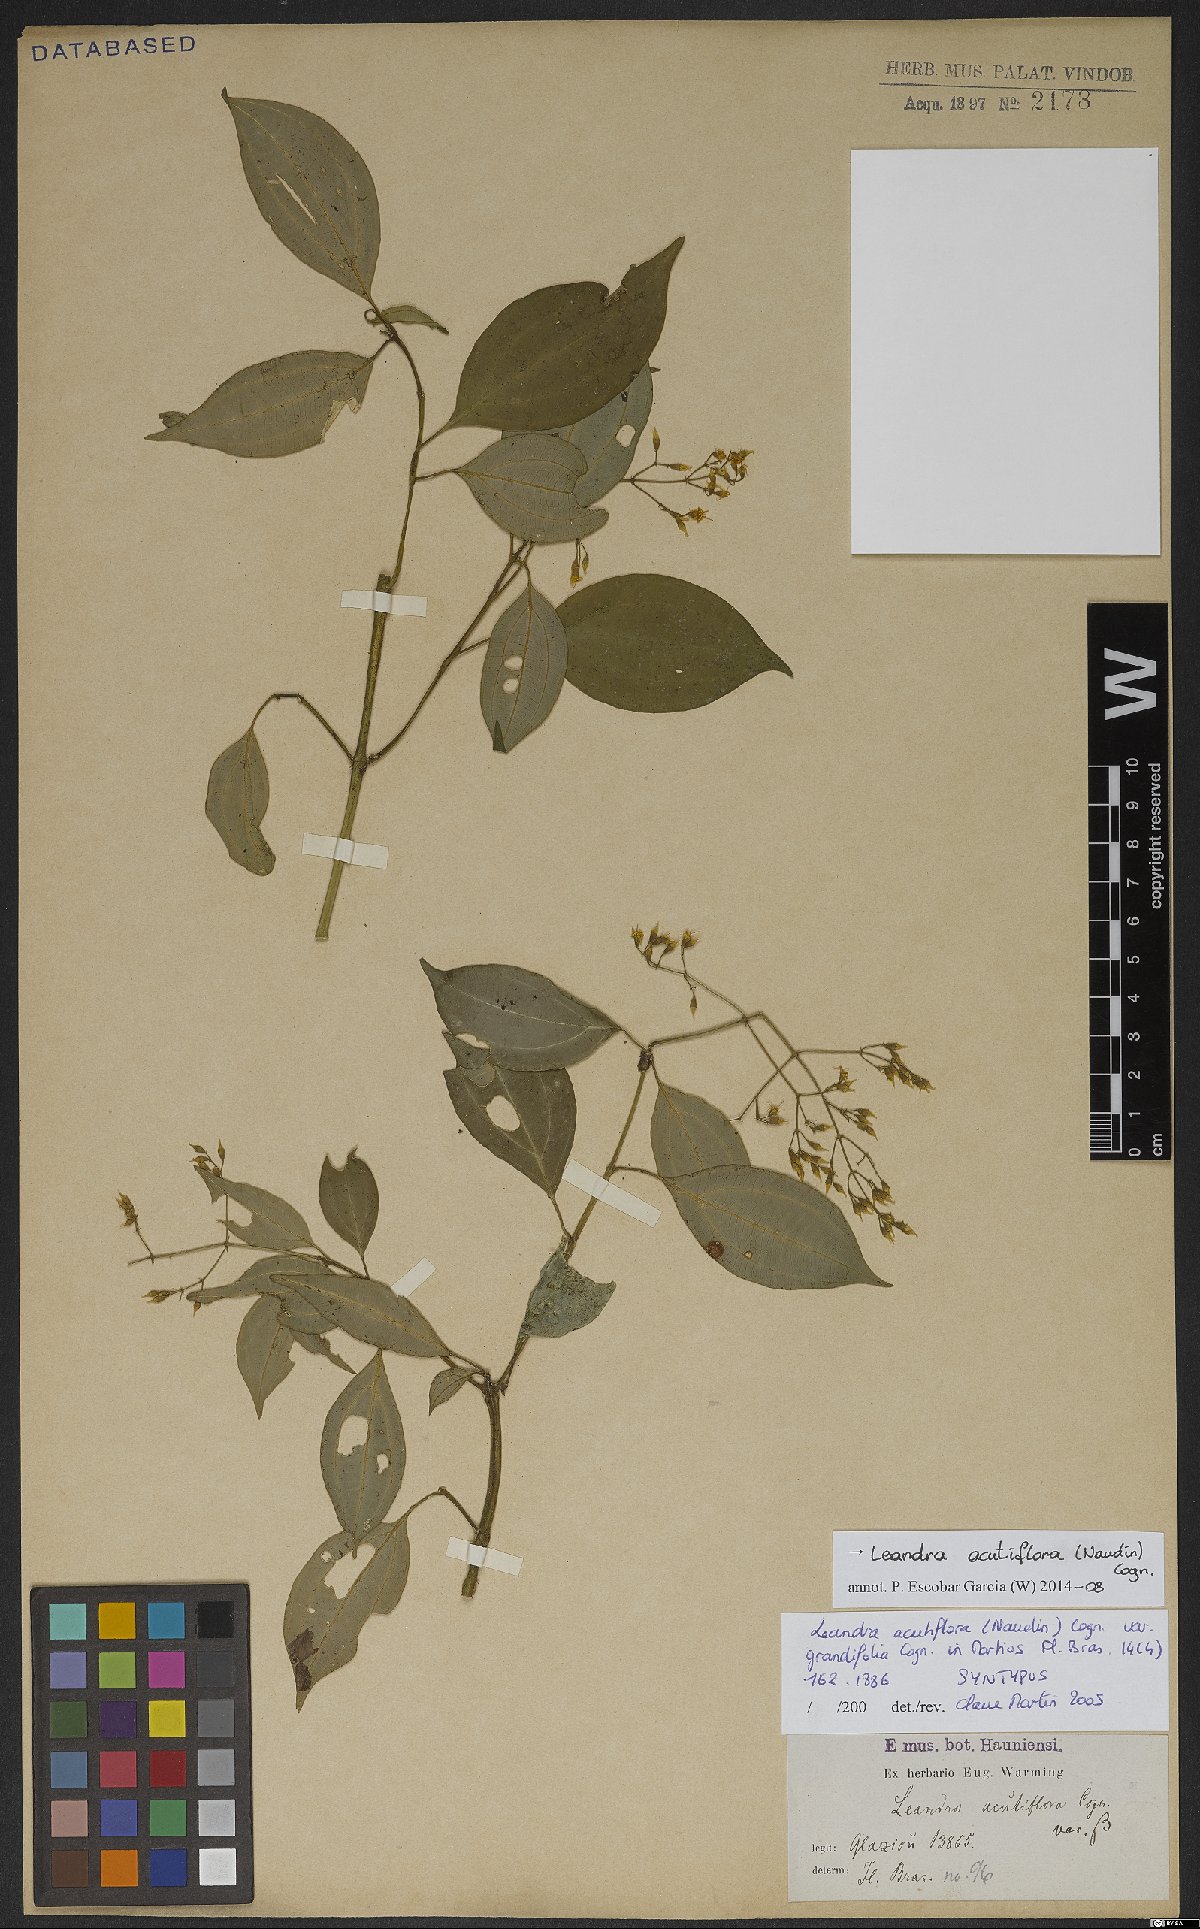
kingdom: Plantae
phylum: Tracheophyta
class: Magnoliopsida
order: Myrtales
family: Melastomataceae
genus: Miconia
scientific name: Miconia acutiflora
